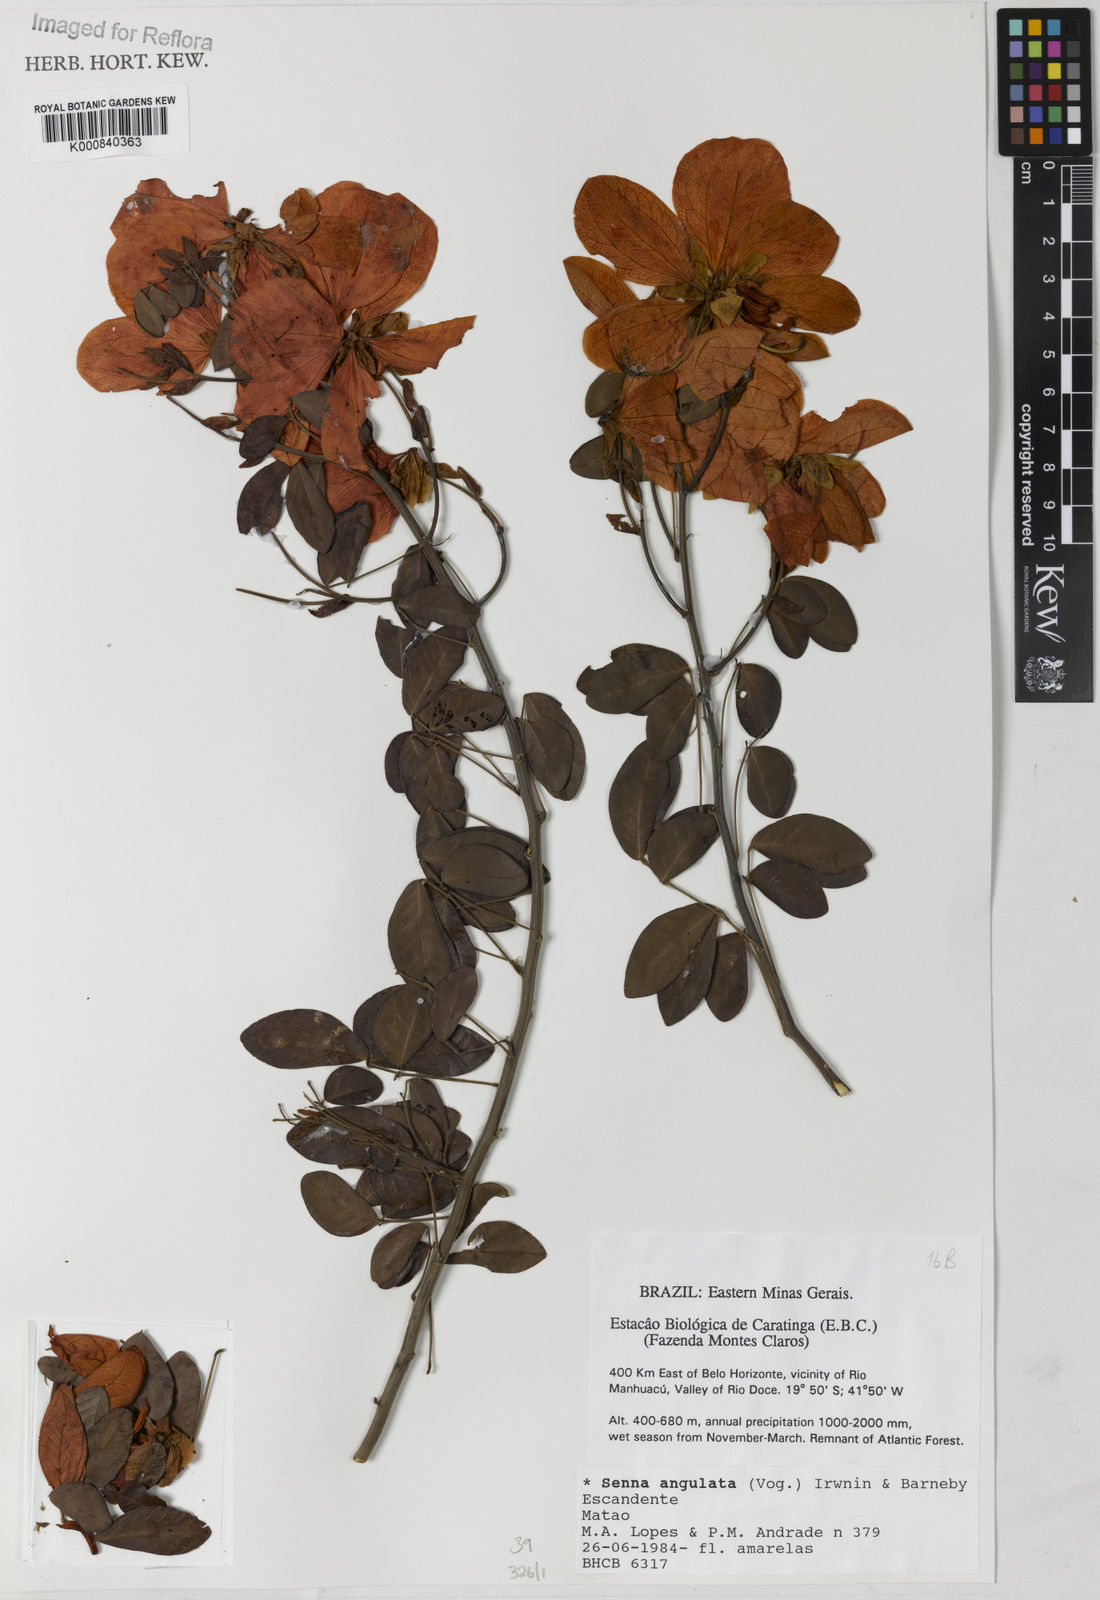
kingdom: Plantae
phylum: Tracheophyta
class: Magnoliopsida
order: Fabales
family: Fabaceae
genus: Senna
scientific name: Senna angulata
